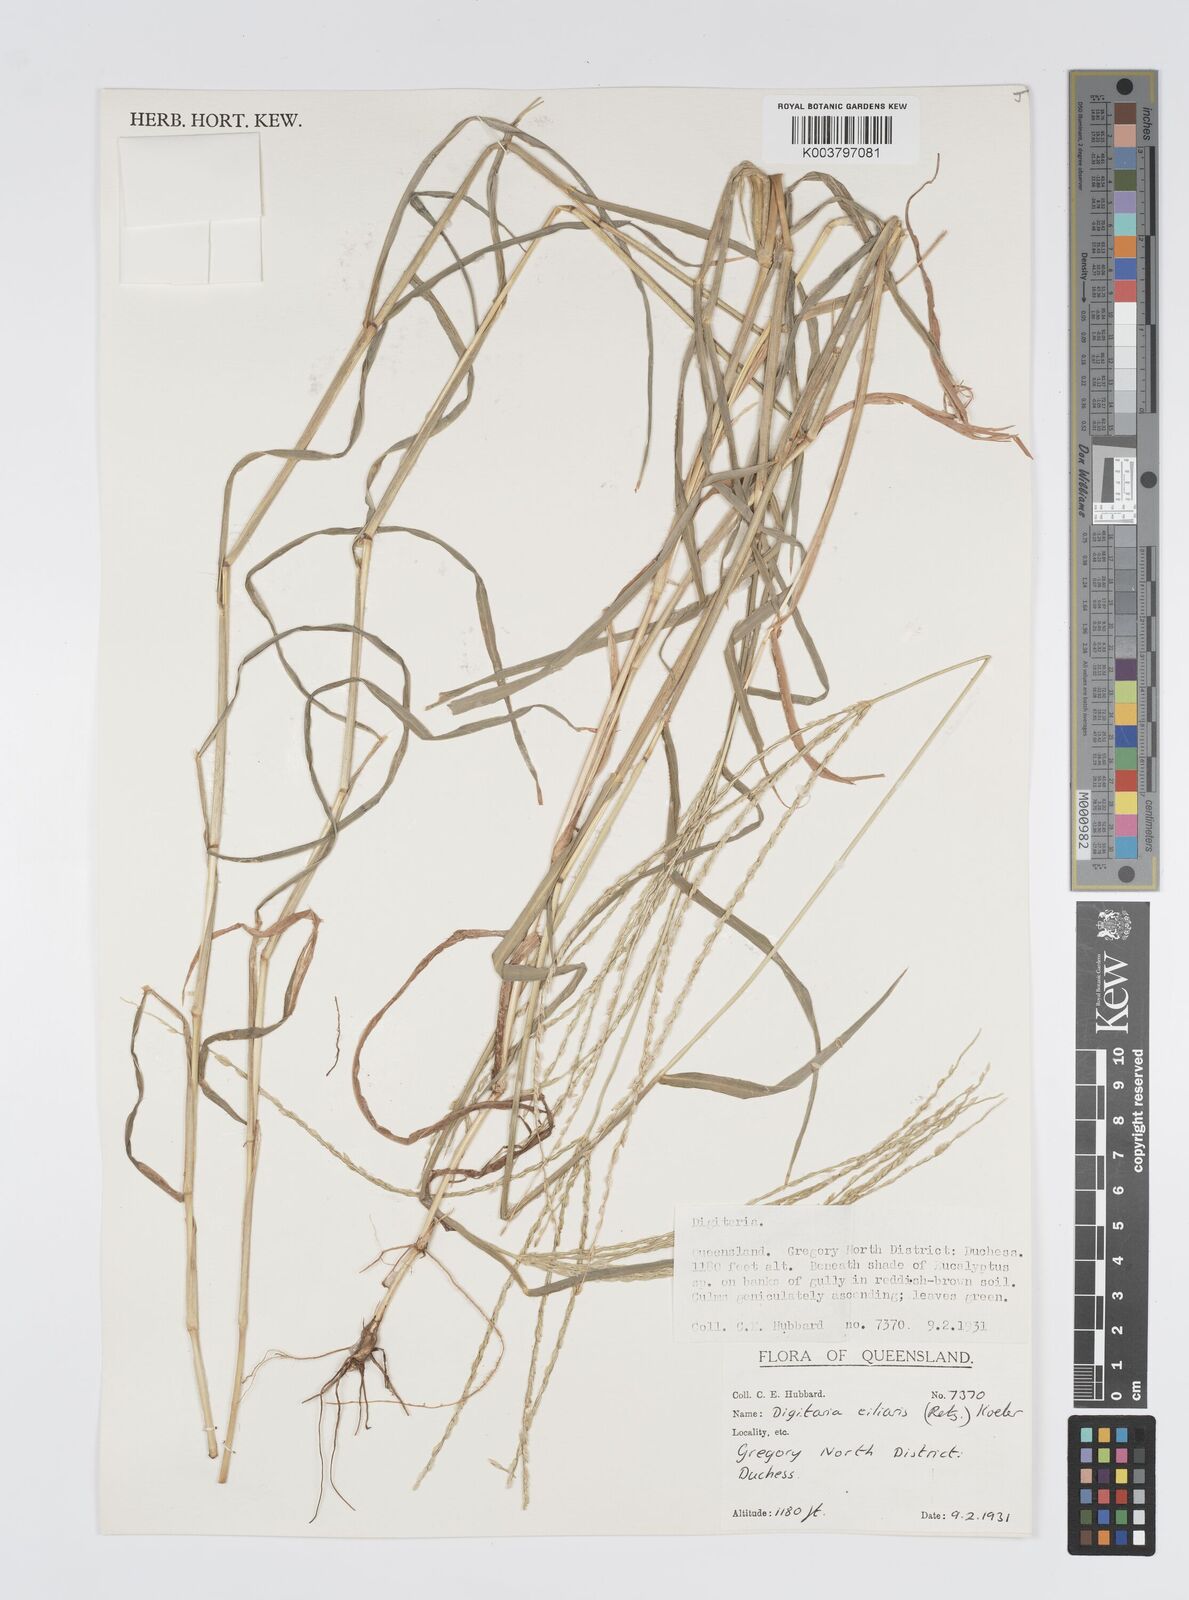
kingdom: Plantae
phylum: Tracheophyta
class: Liliopsida
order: Poales
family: Poaceae
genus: Digitaria
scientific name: Digitaria ciliaris
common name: Tropical finger-grass
